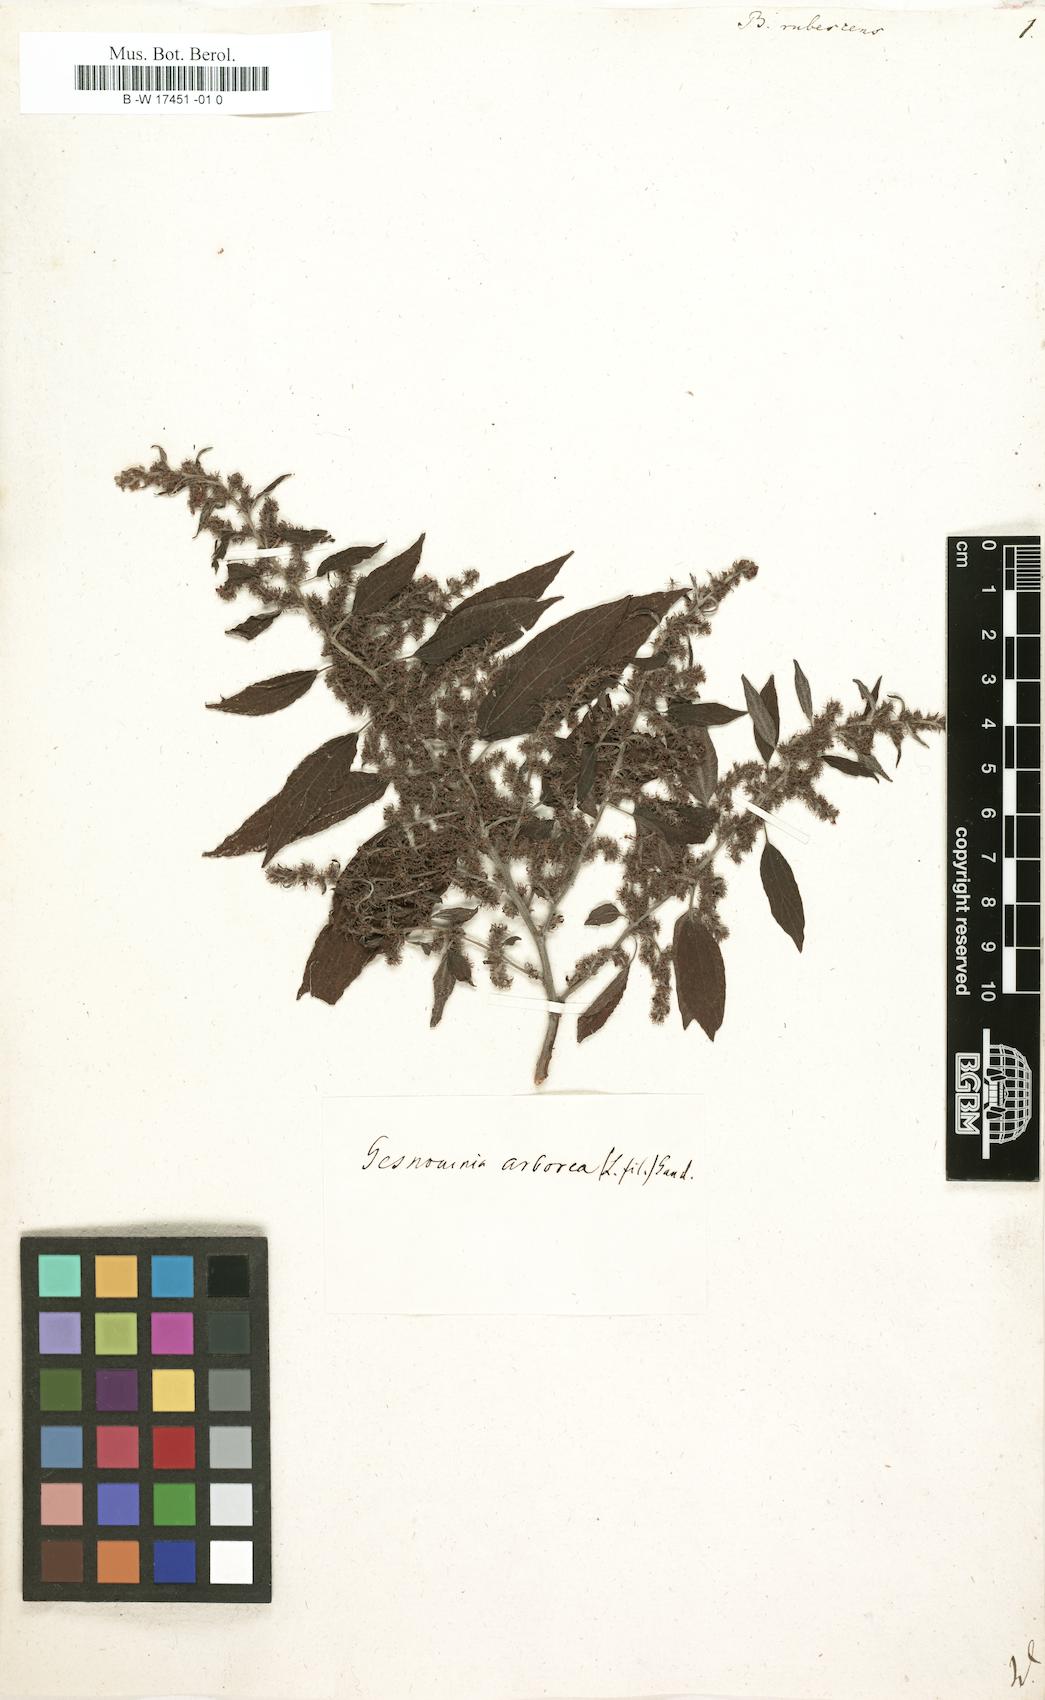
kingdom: Plantae
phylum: Tracheophyta
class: Magnoliopsida
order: Rosales
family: Urticaceae
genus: Gesnouinia
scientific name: Gesnouinia arborea
